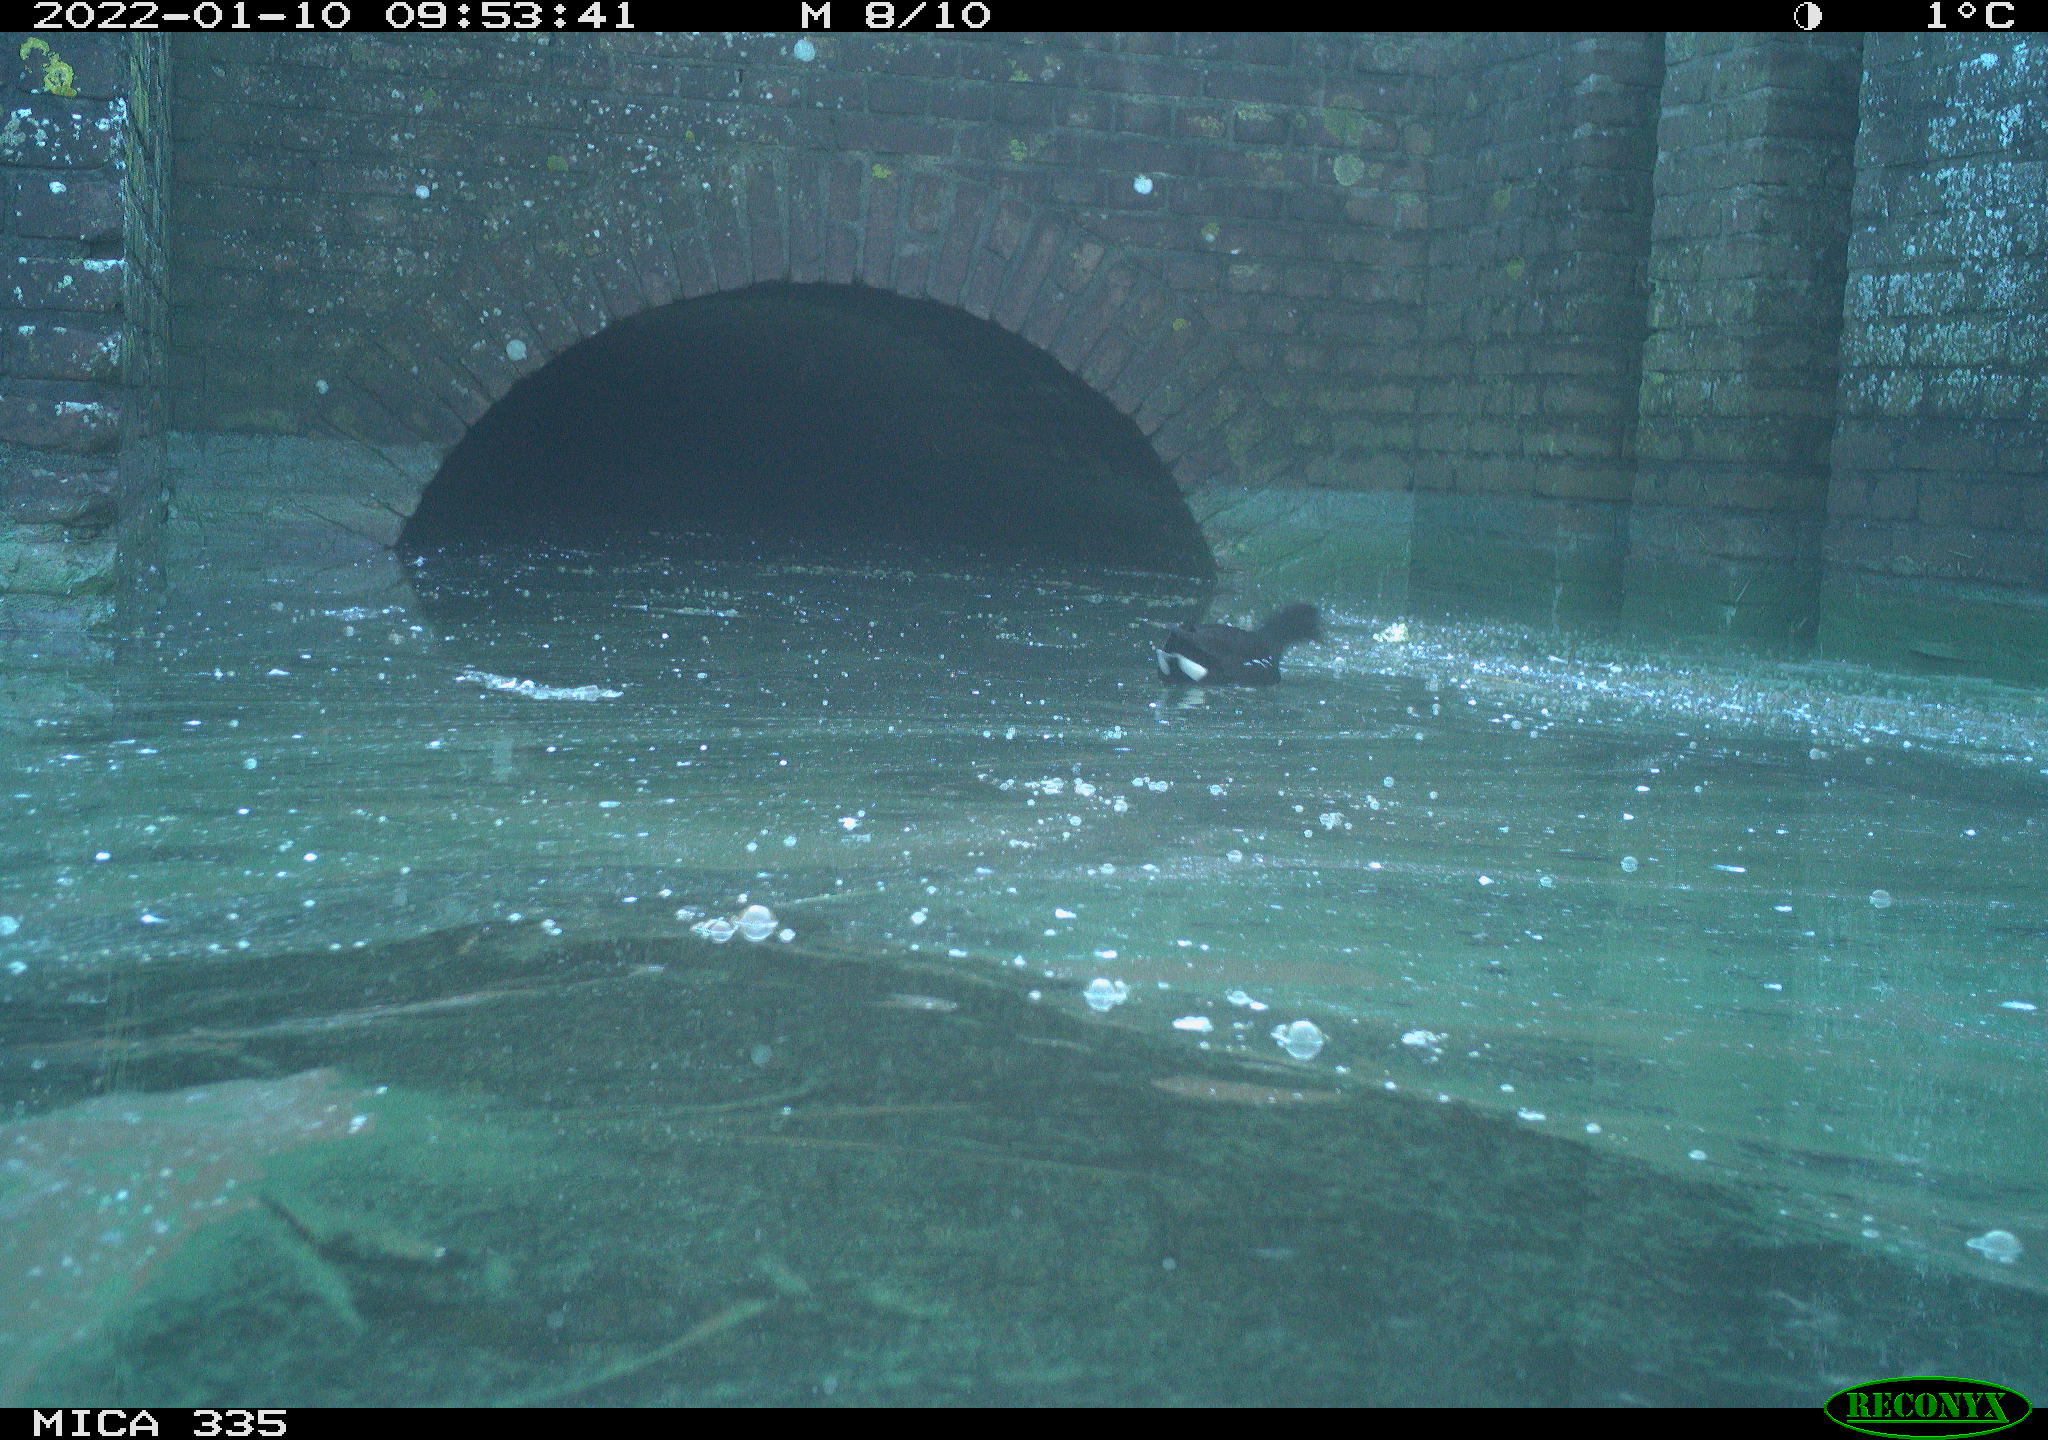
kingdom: Animalia
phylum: Chordata
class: Aves
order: Gruiformes
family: Rallidae
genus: Gallinula
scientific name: Gallinula chloropus
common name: Common moorhen
